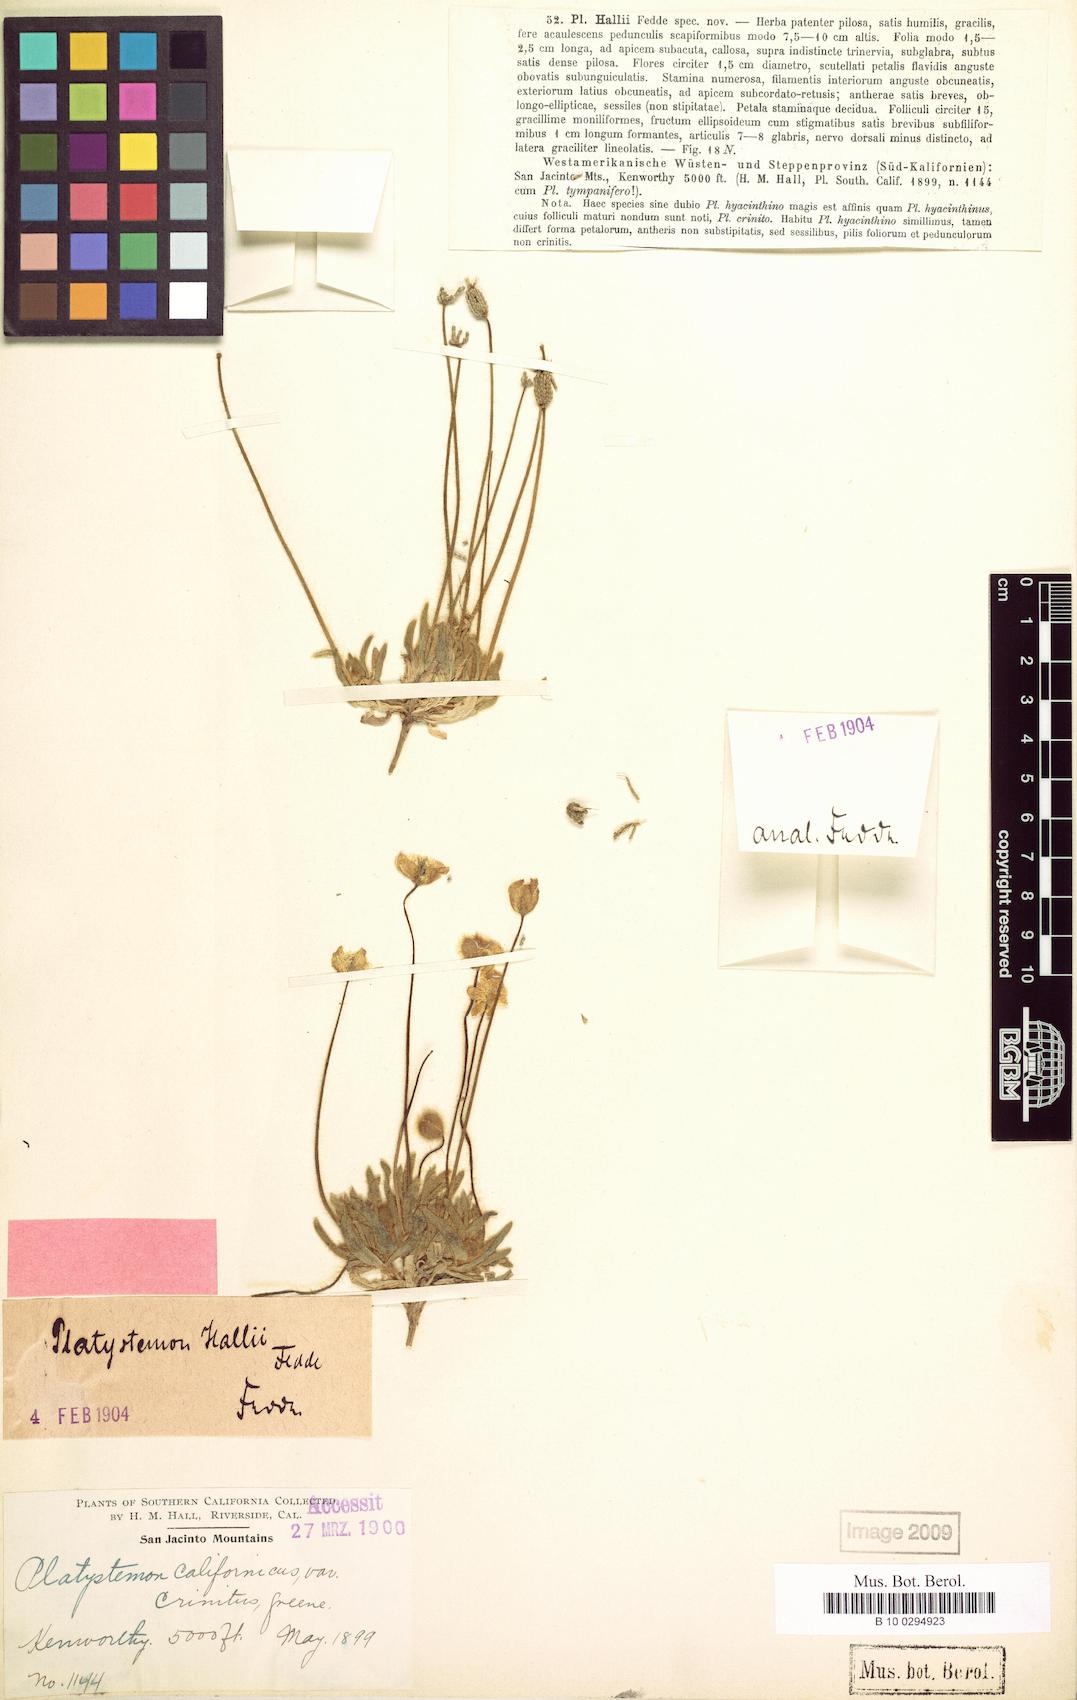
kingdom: Plantae
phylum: Tracheophyta
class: Magnoliopsida
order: Ranunculales
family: Papaveraceae
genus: Platystemon
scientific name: Platystemon californicus
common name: Cream-cups
